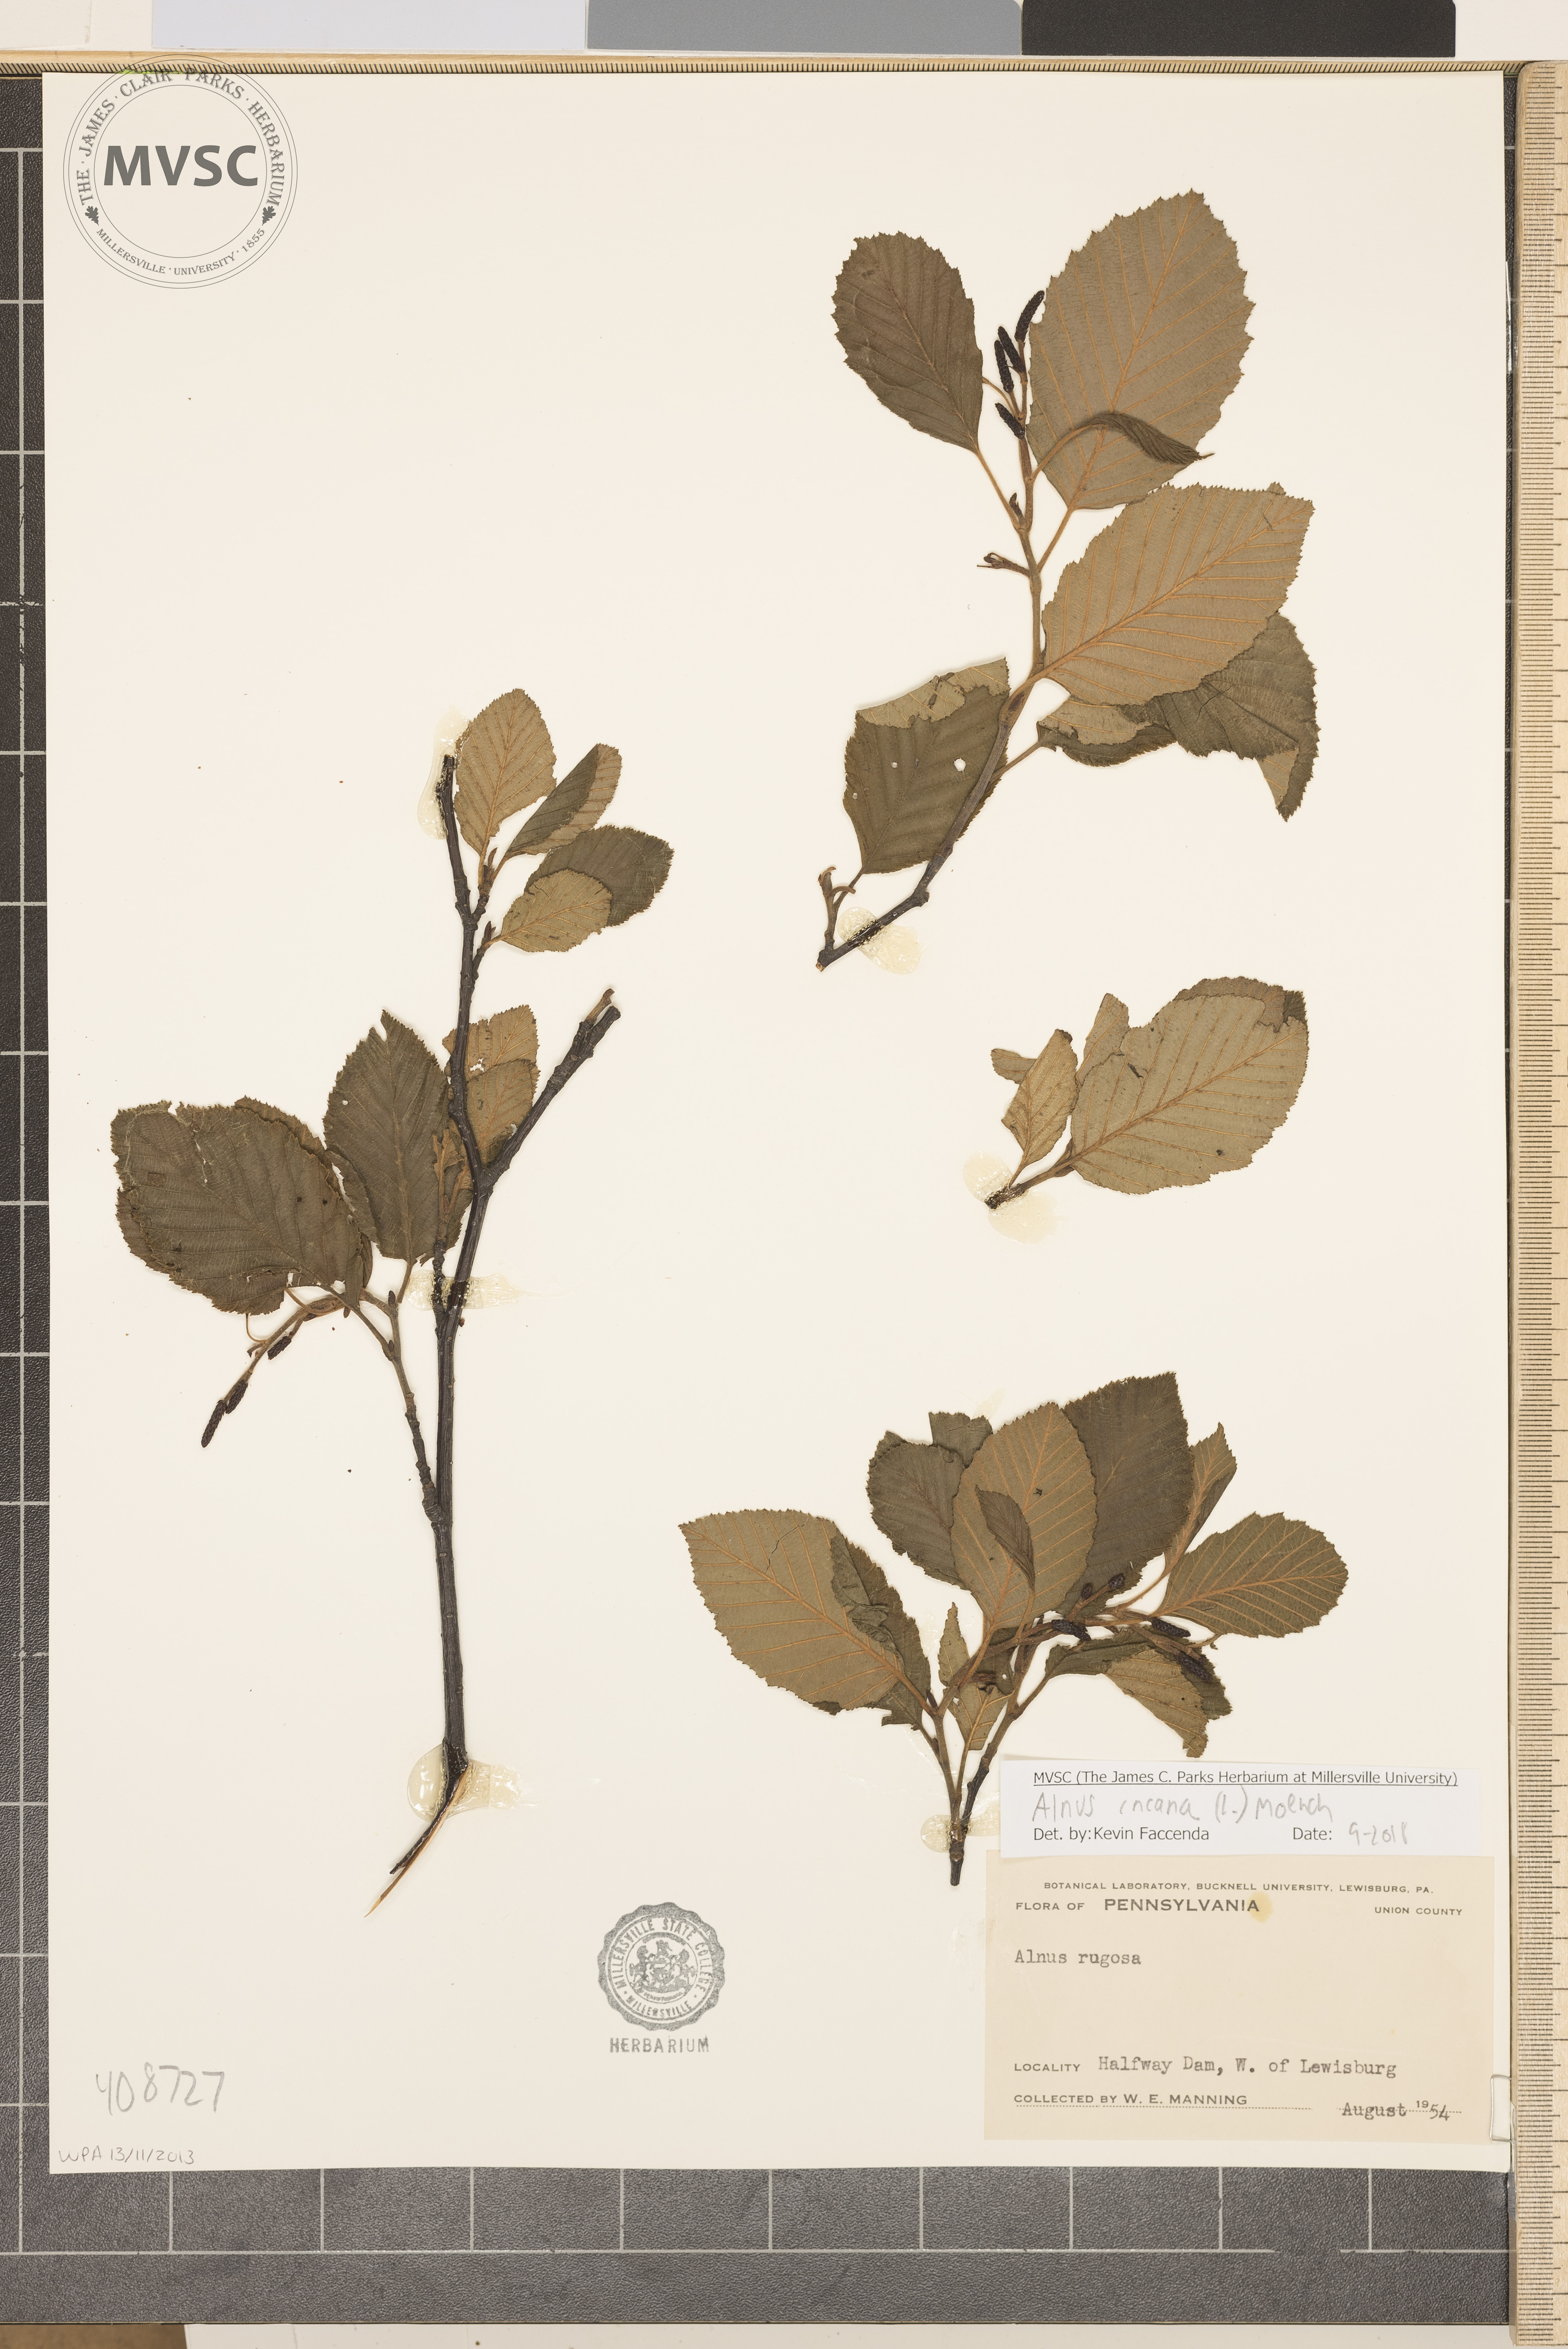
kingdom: Plantae
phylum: Tracheophyta
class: Magnoliopsida
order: Fagales
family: Betulaceae
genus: Alnus
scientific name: Alnus incana
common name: Grey alder
